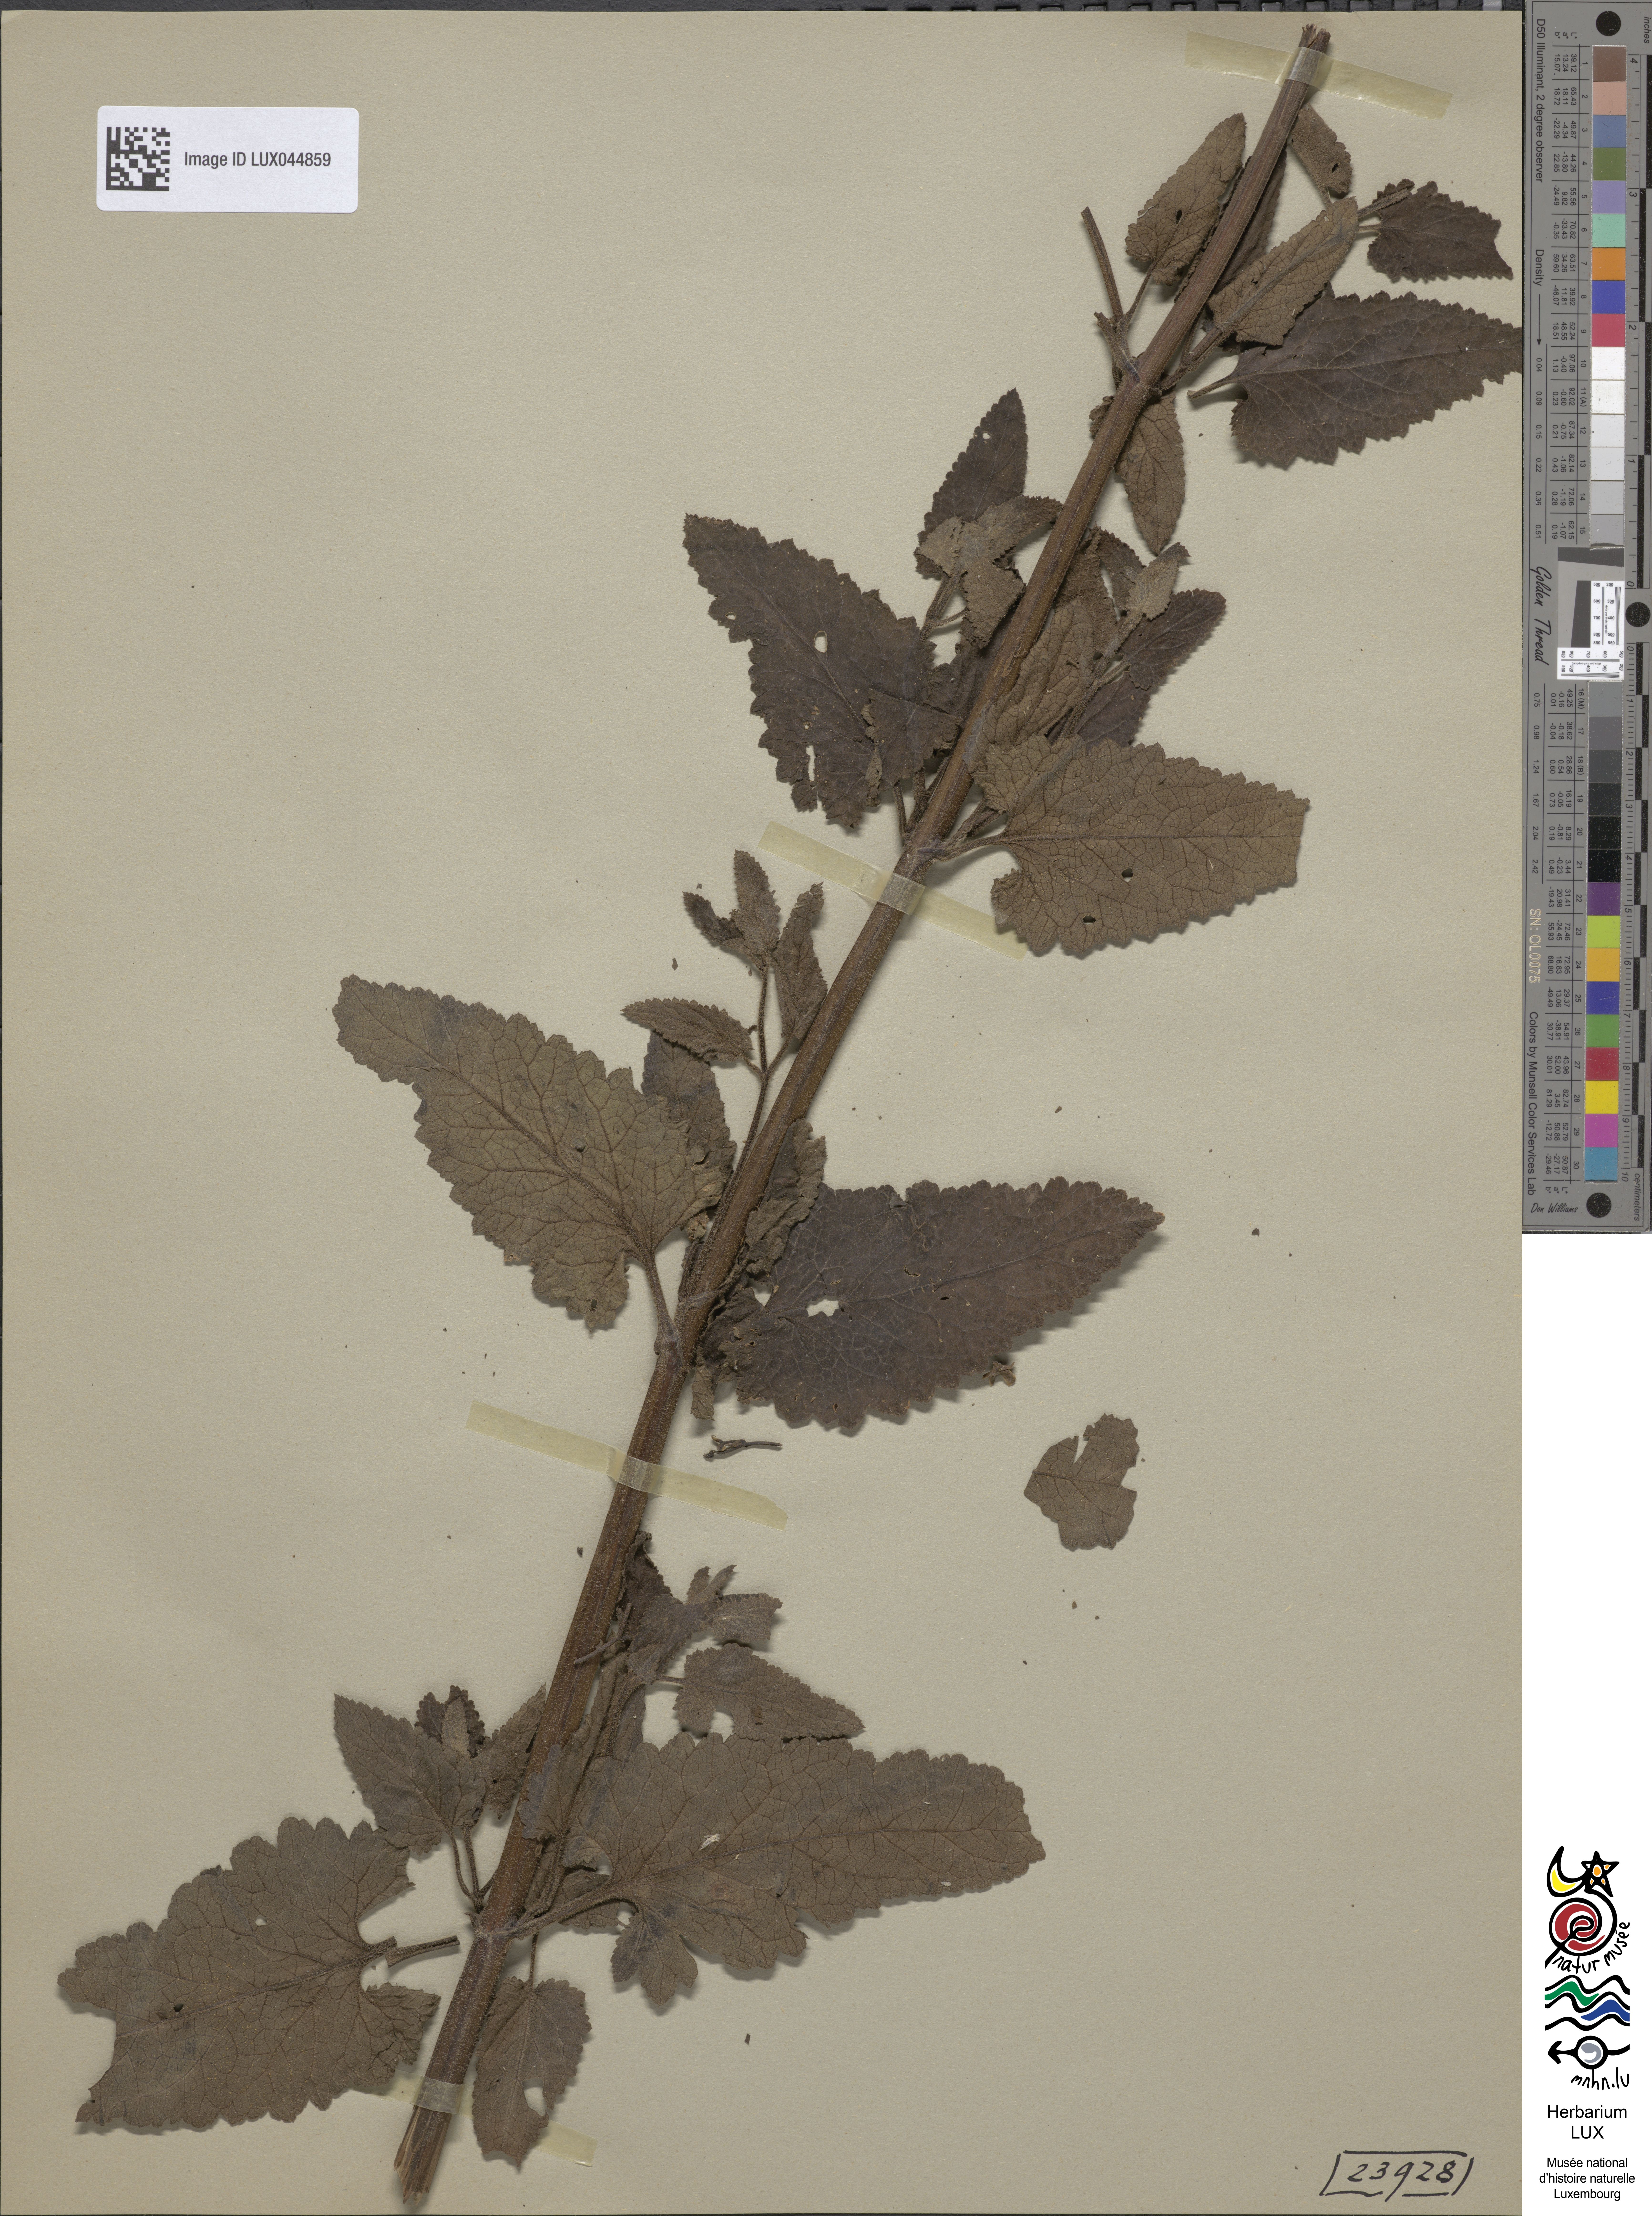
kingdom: Plantae
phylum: Tracheophyta
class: Magnoliopsida
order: Lamiales
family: Scrophulariaceae
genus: Scrophularia
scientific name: Scrophularia scorodonia
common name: Balm-leaved figwort
